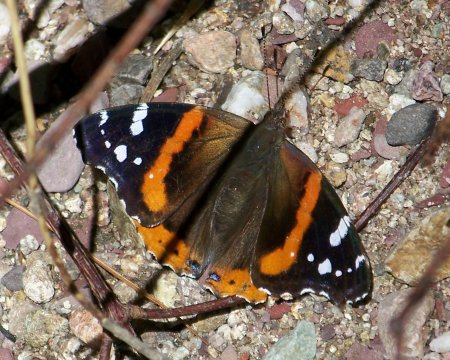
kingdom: Animalia
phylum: Arthropoda
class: Insecta
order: Lepidoptera
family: Nymphalidae
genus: Vanessa
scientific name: Vanessa atalanta
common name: Red Admiral
